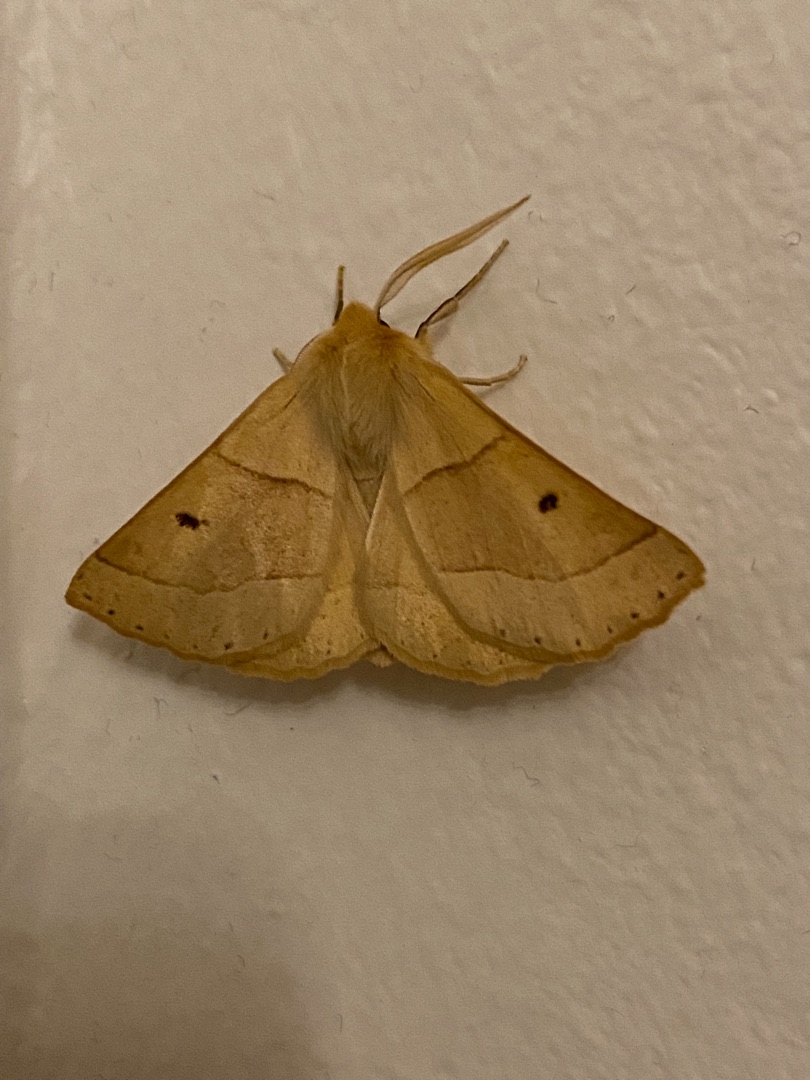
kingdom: Animalia
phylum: Arthropoda
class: Insecta
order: Lepidoptera
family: Geometridae
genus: Crocallis
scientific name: Crocallis elinguaria
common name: Okkergul rovmåler
